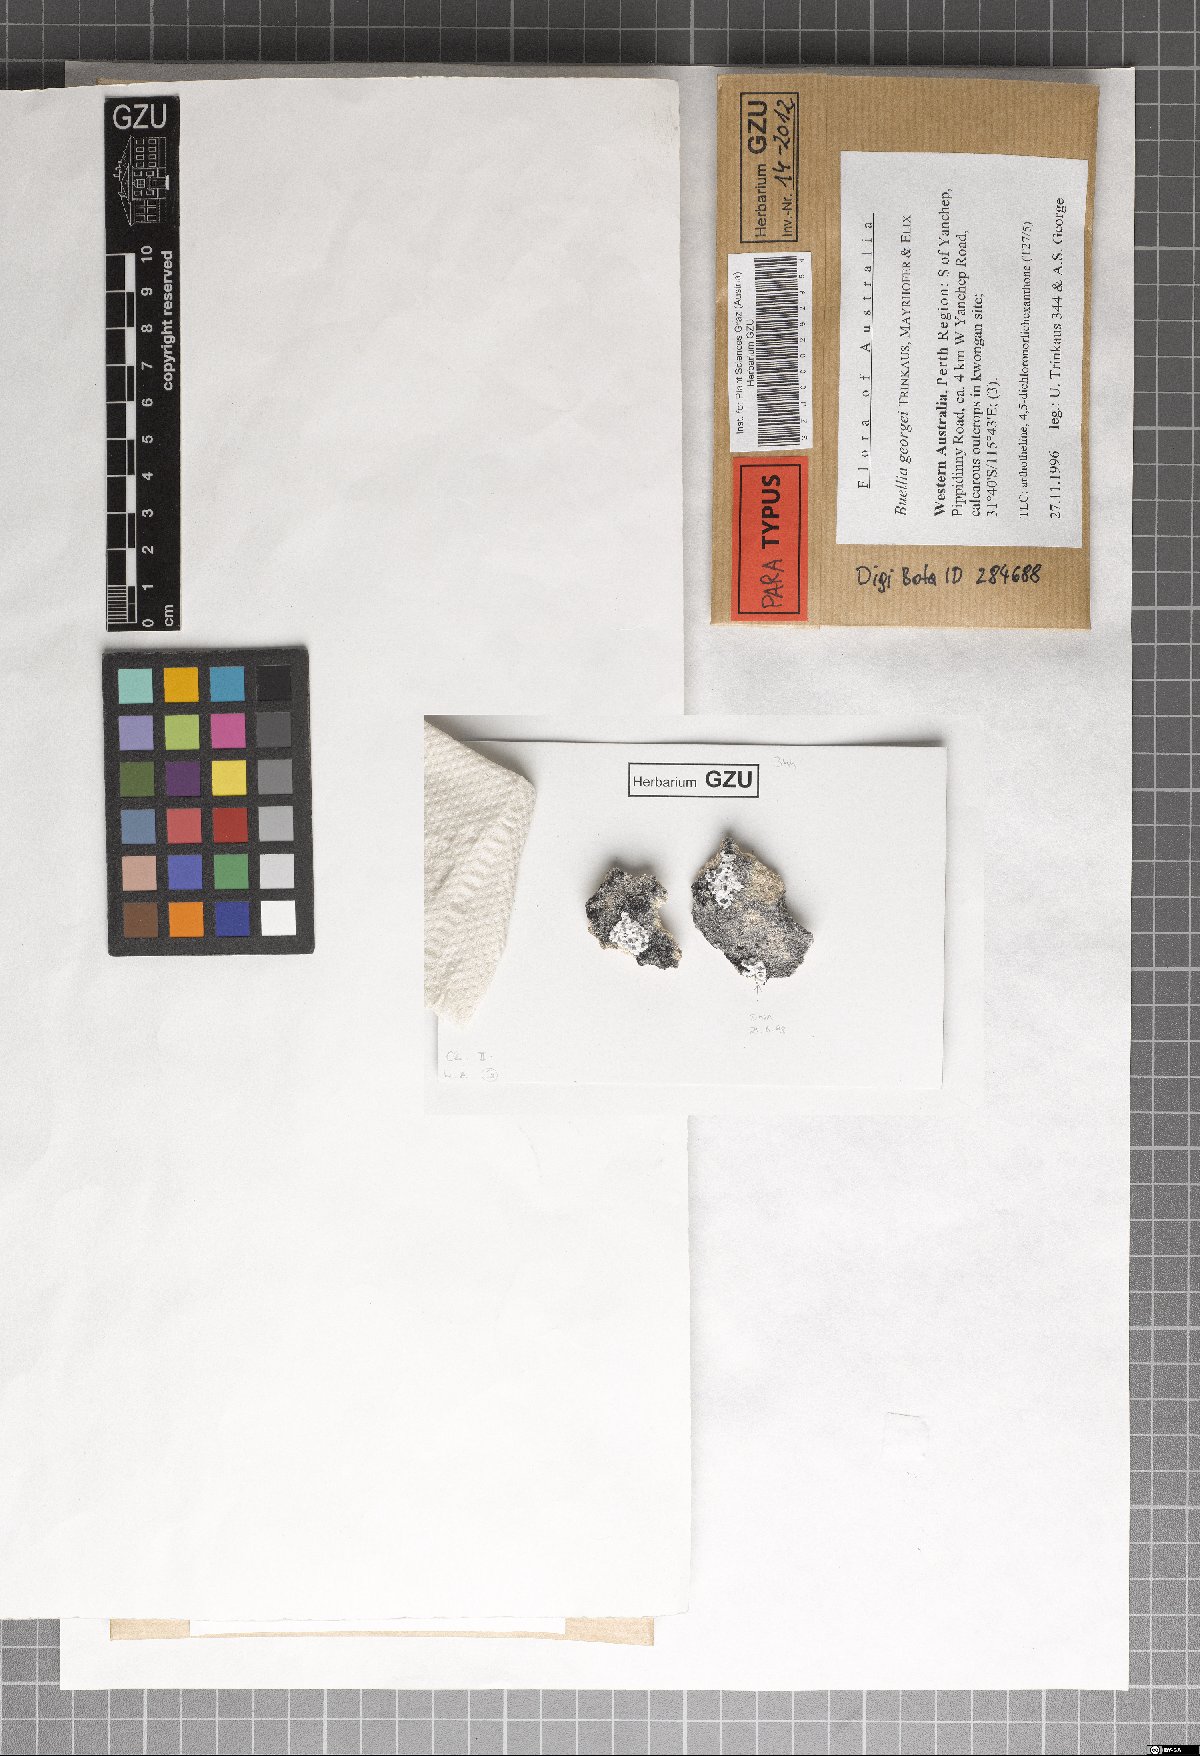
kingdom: Fungi
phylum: Ascomycota
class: Lecanoromycetes
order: Caliciales
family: Caliciaceae
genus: Buellia
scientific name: Buellia georgei
